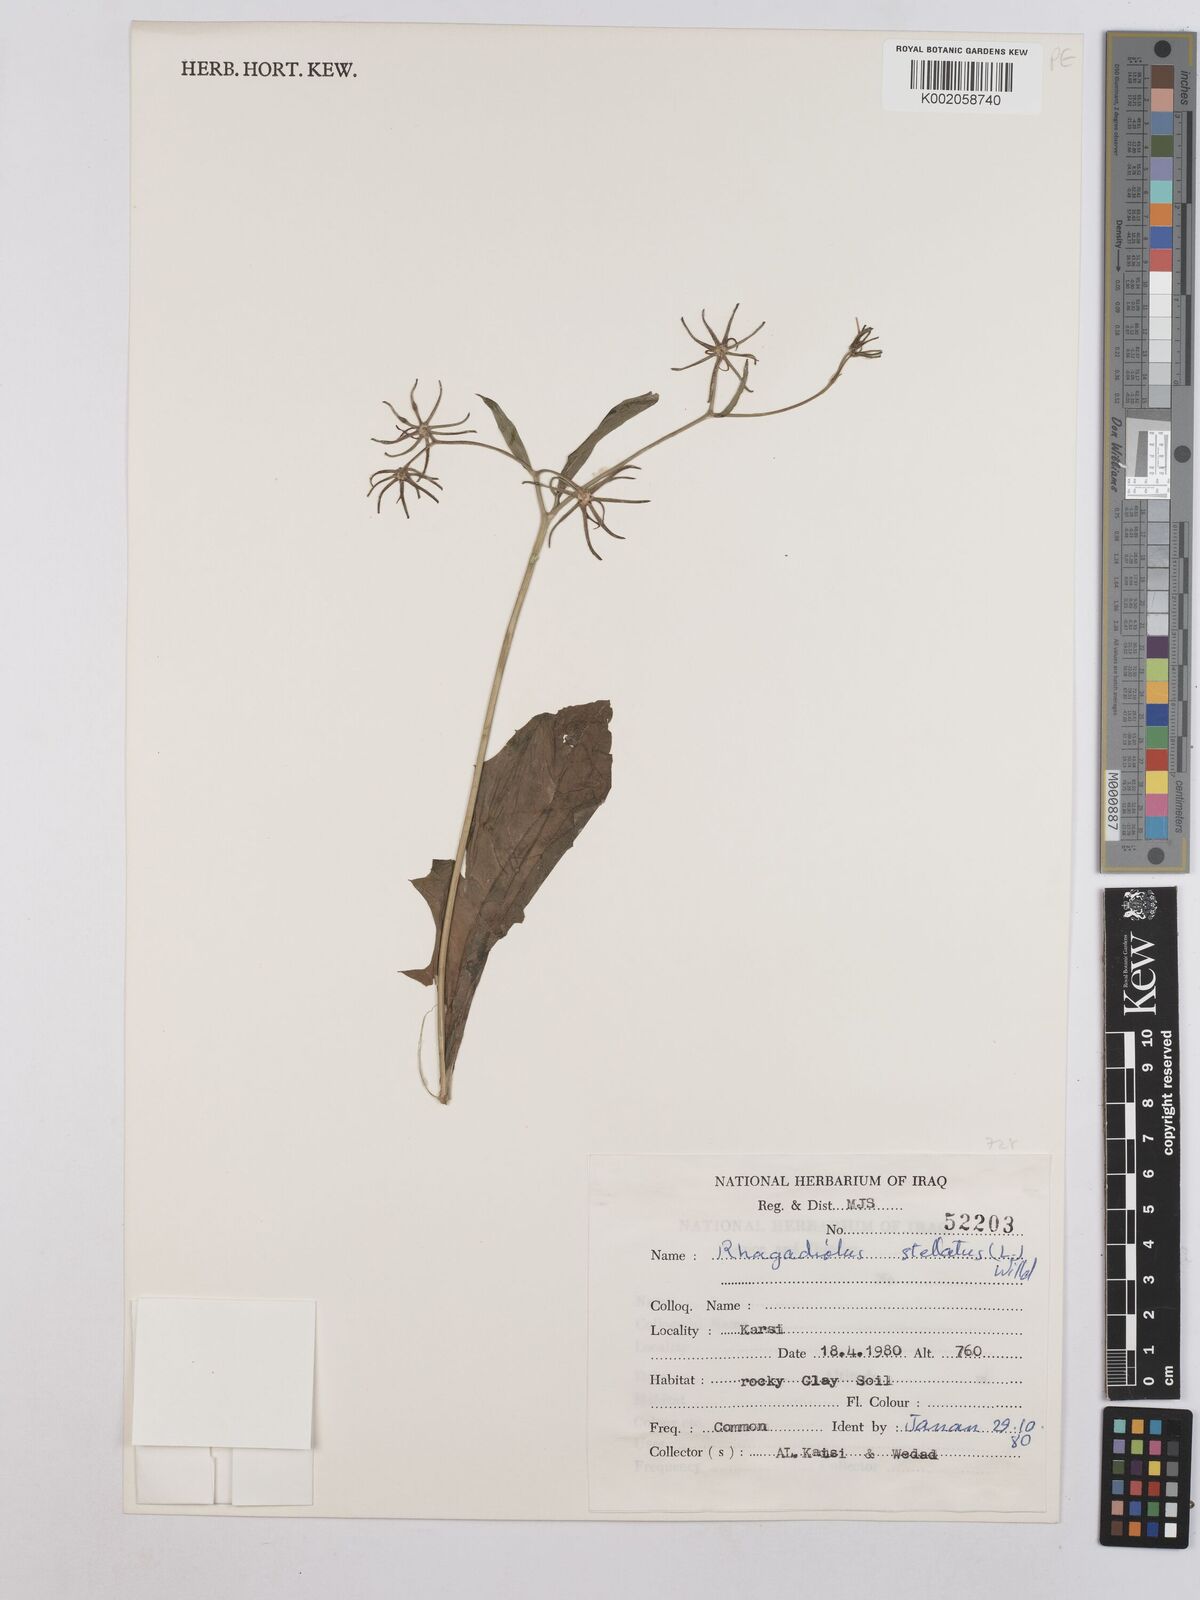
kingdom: Plantae
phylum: Tracheophyta
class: Magnoliopsida
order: Asterales
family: Asteraceae
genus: Rhagadiolus
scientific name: Rhagadiolus stellatus
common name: Star hawkbit
